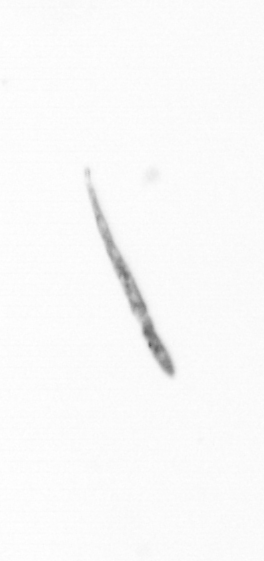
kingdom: Chromista
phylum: Ochrophyta
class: Bacillariophyceae
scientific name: Bacillariophyceae
